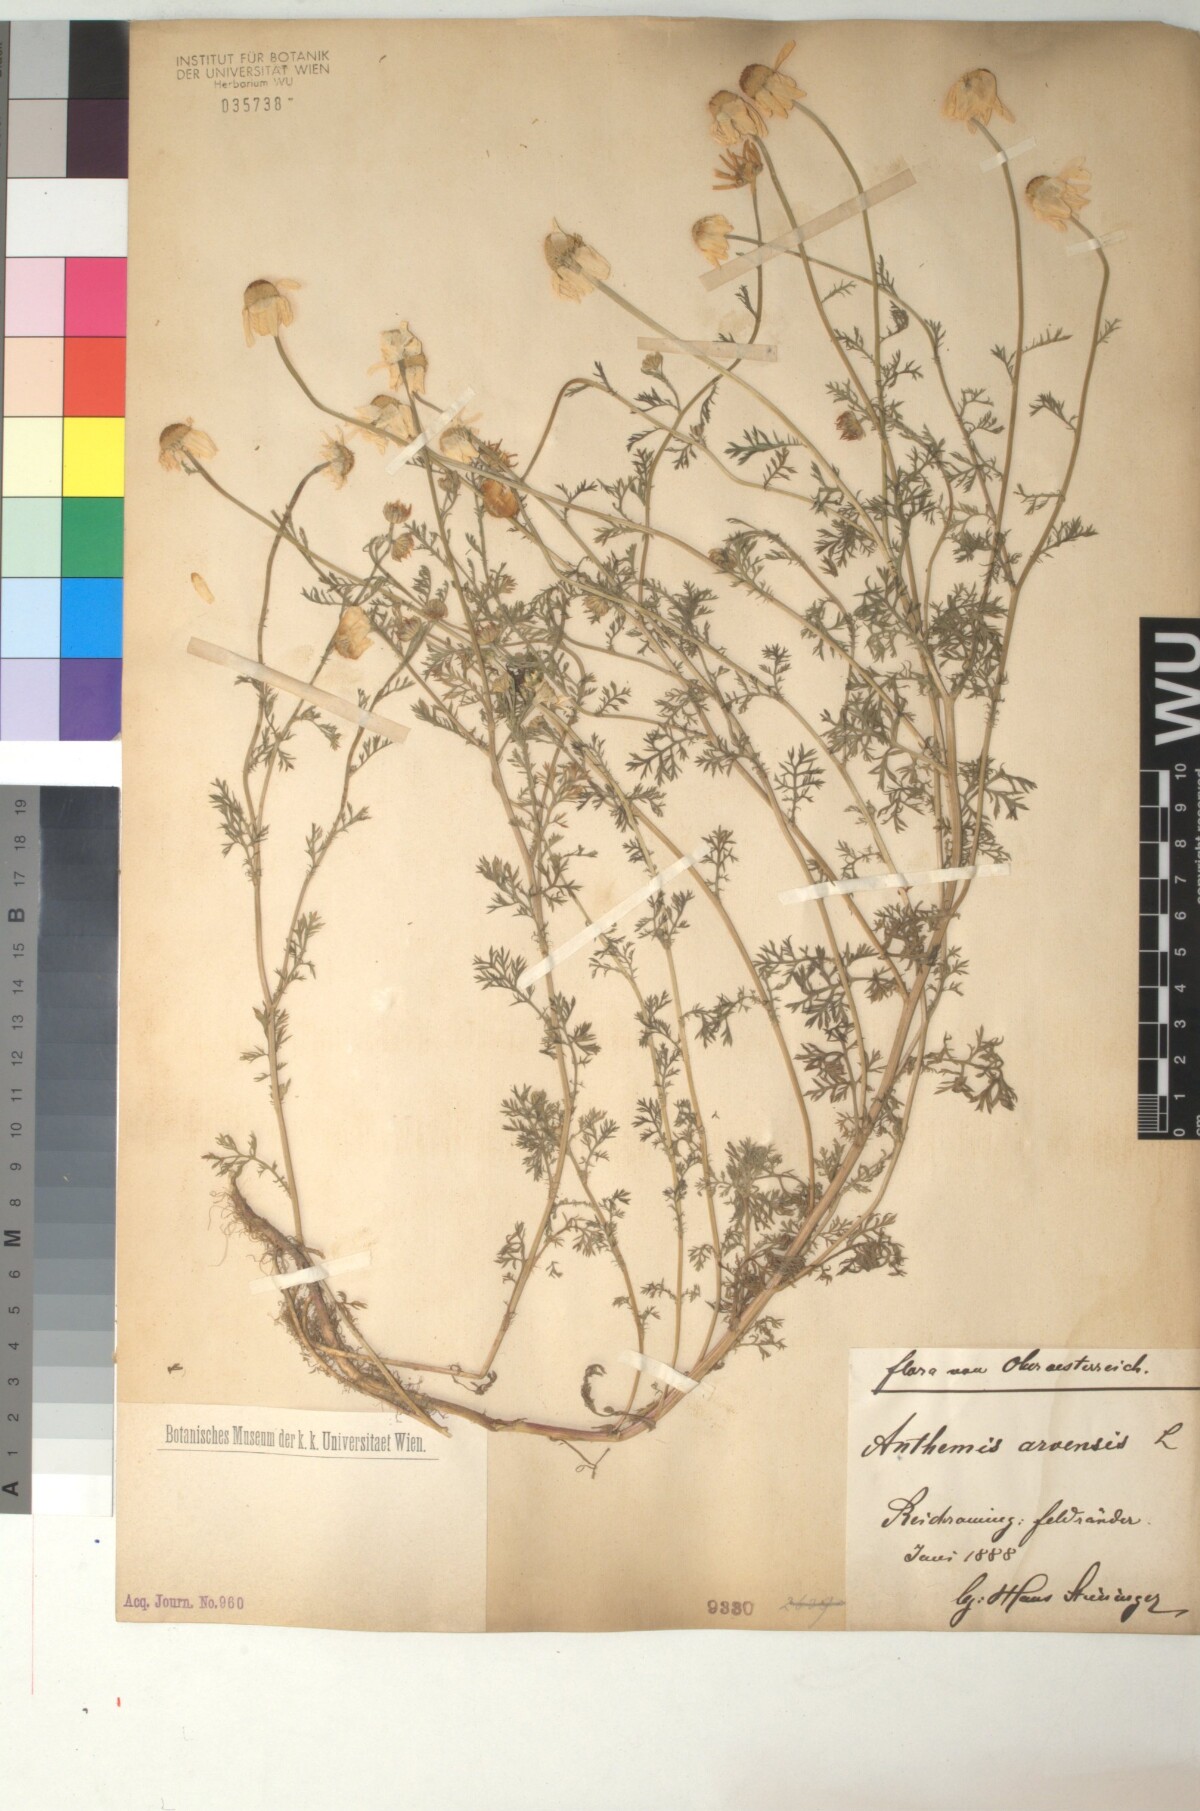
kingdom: Plantae
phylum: Tracheophyta
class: Magnoliopsida
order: Asterales
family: Asteraceae
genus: Anthemis
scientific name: Anthemis arvensis
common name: Corn chamomile
